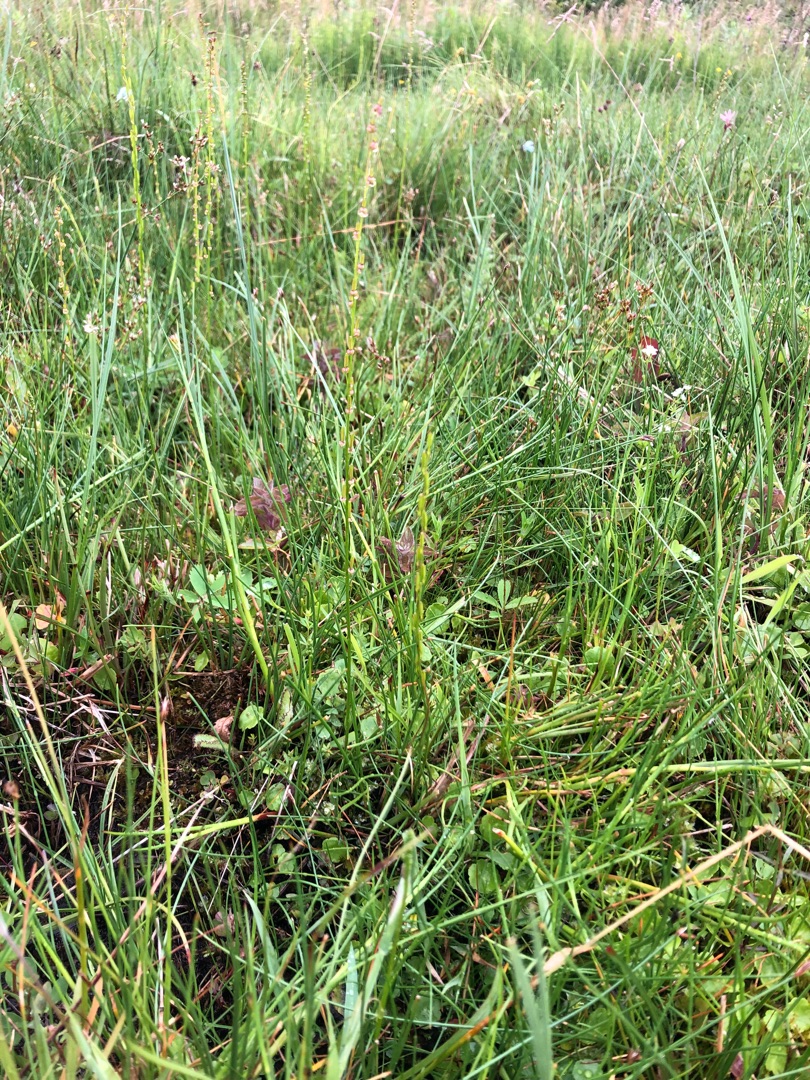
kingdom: Plantae
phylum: Tracheophyta
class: Liliopsida
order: Alismatales
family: Juncaginaceae
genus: Triglochin
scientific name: Triglochin palustris
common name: Kær-trehage
